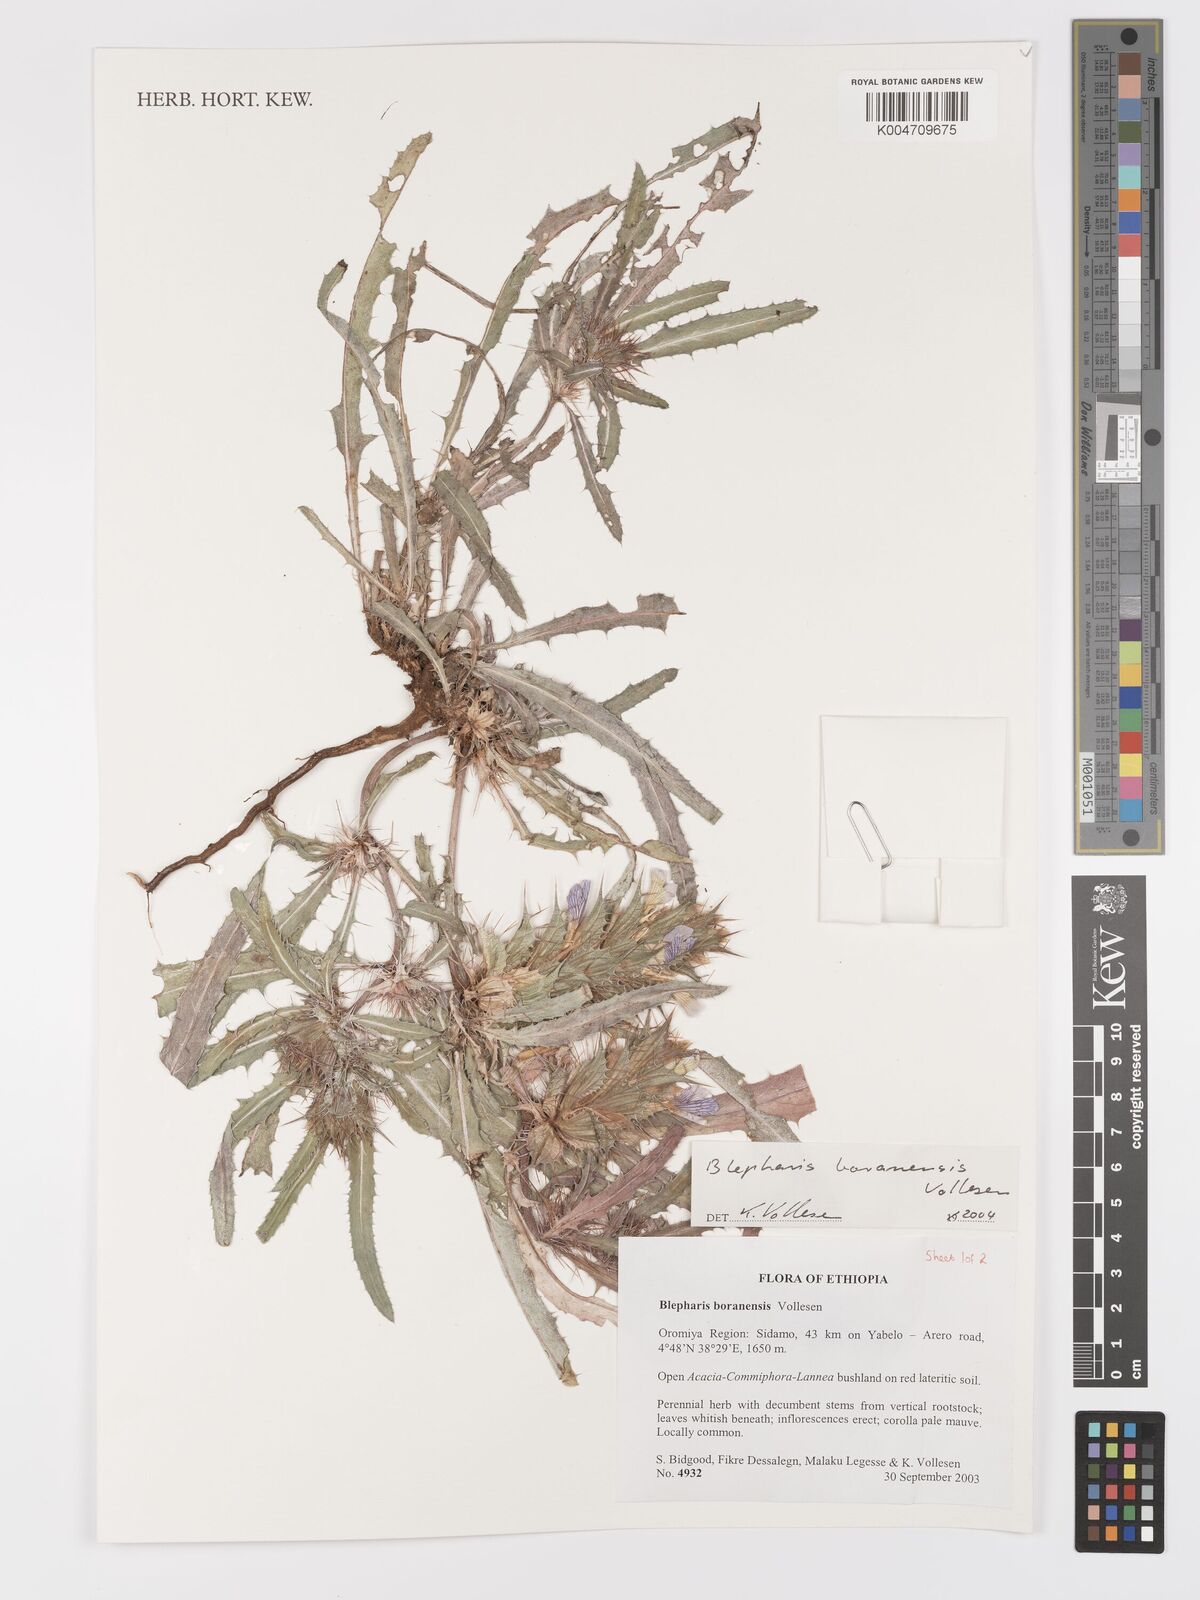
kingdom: Plantae
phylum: Tracheophyta
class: Magnoliopsida
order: Lamiales
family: Acanthaceae
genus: Blepharis
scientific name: Blepharis boranensis
